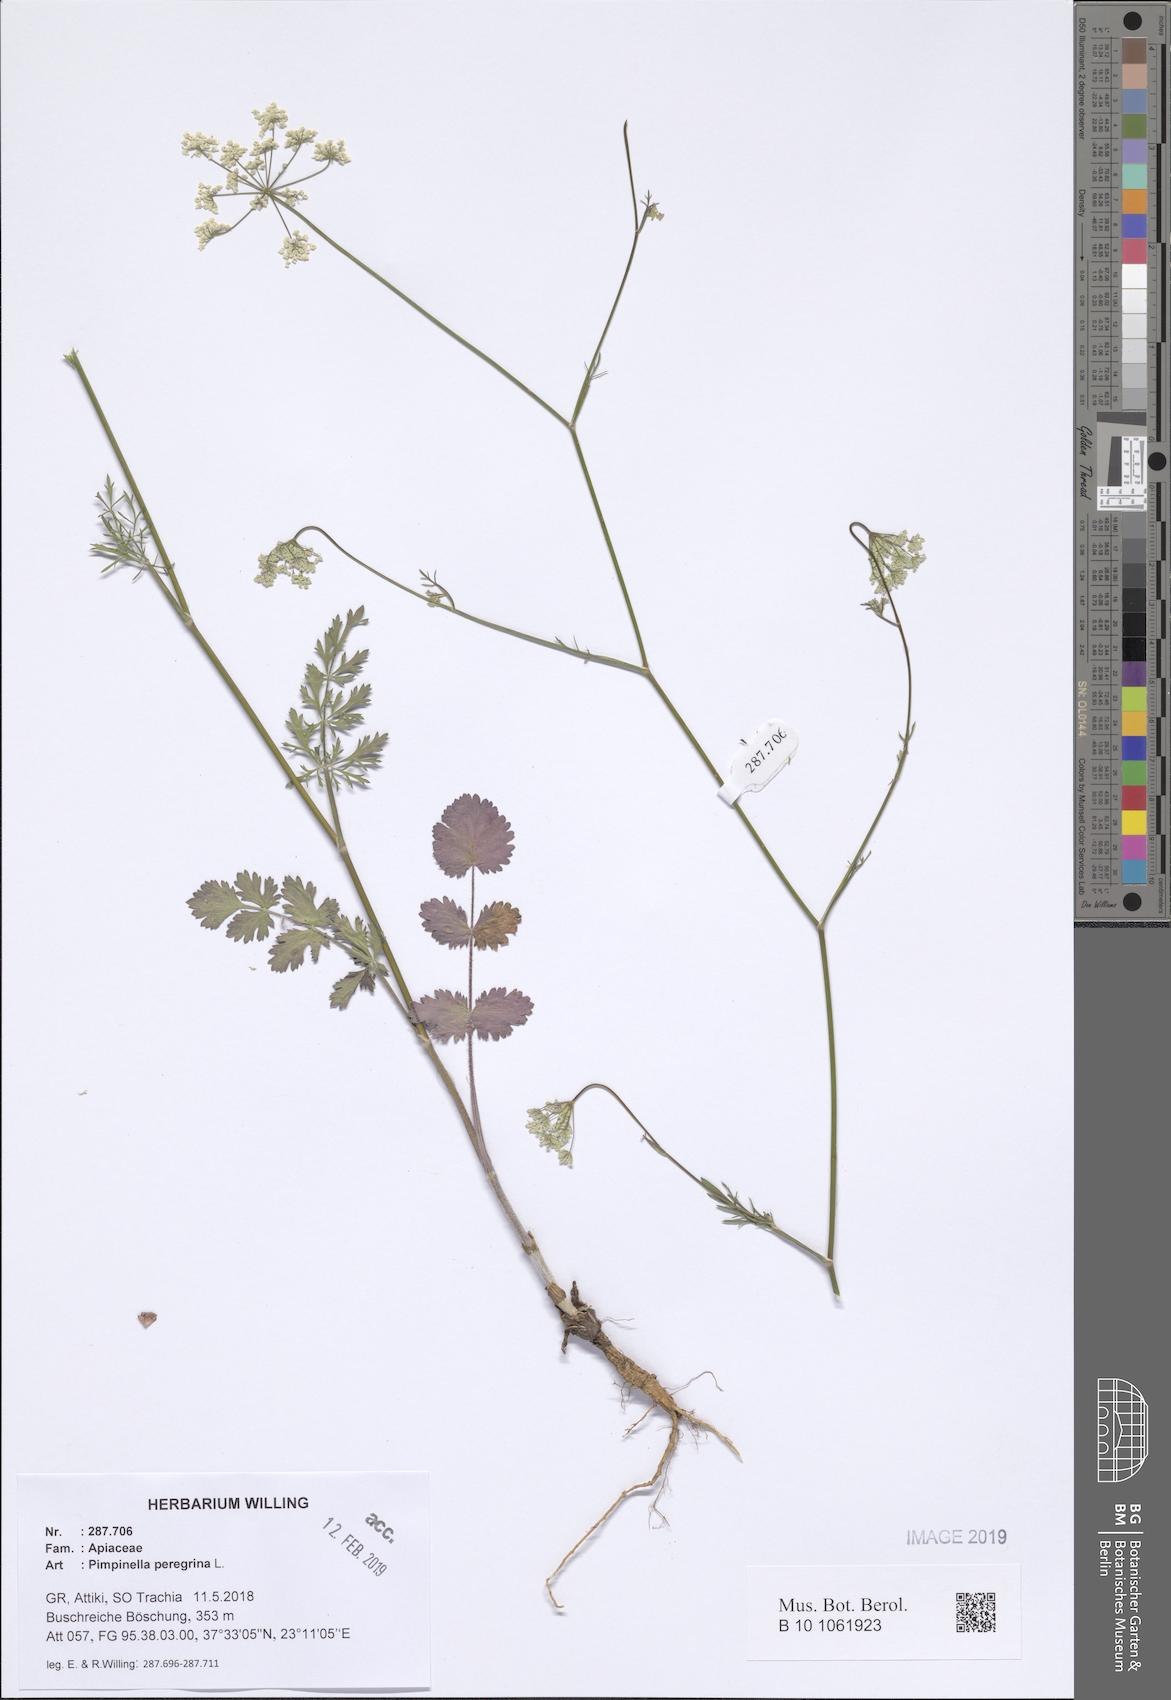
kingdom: Plantae
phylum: Tracheophyta
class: Magnoliopsida
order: Apiales
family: Apiaceae
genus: Pimpinella
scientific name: Pimpinella peregrina
